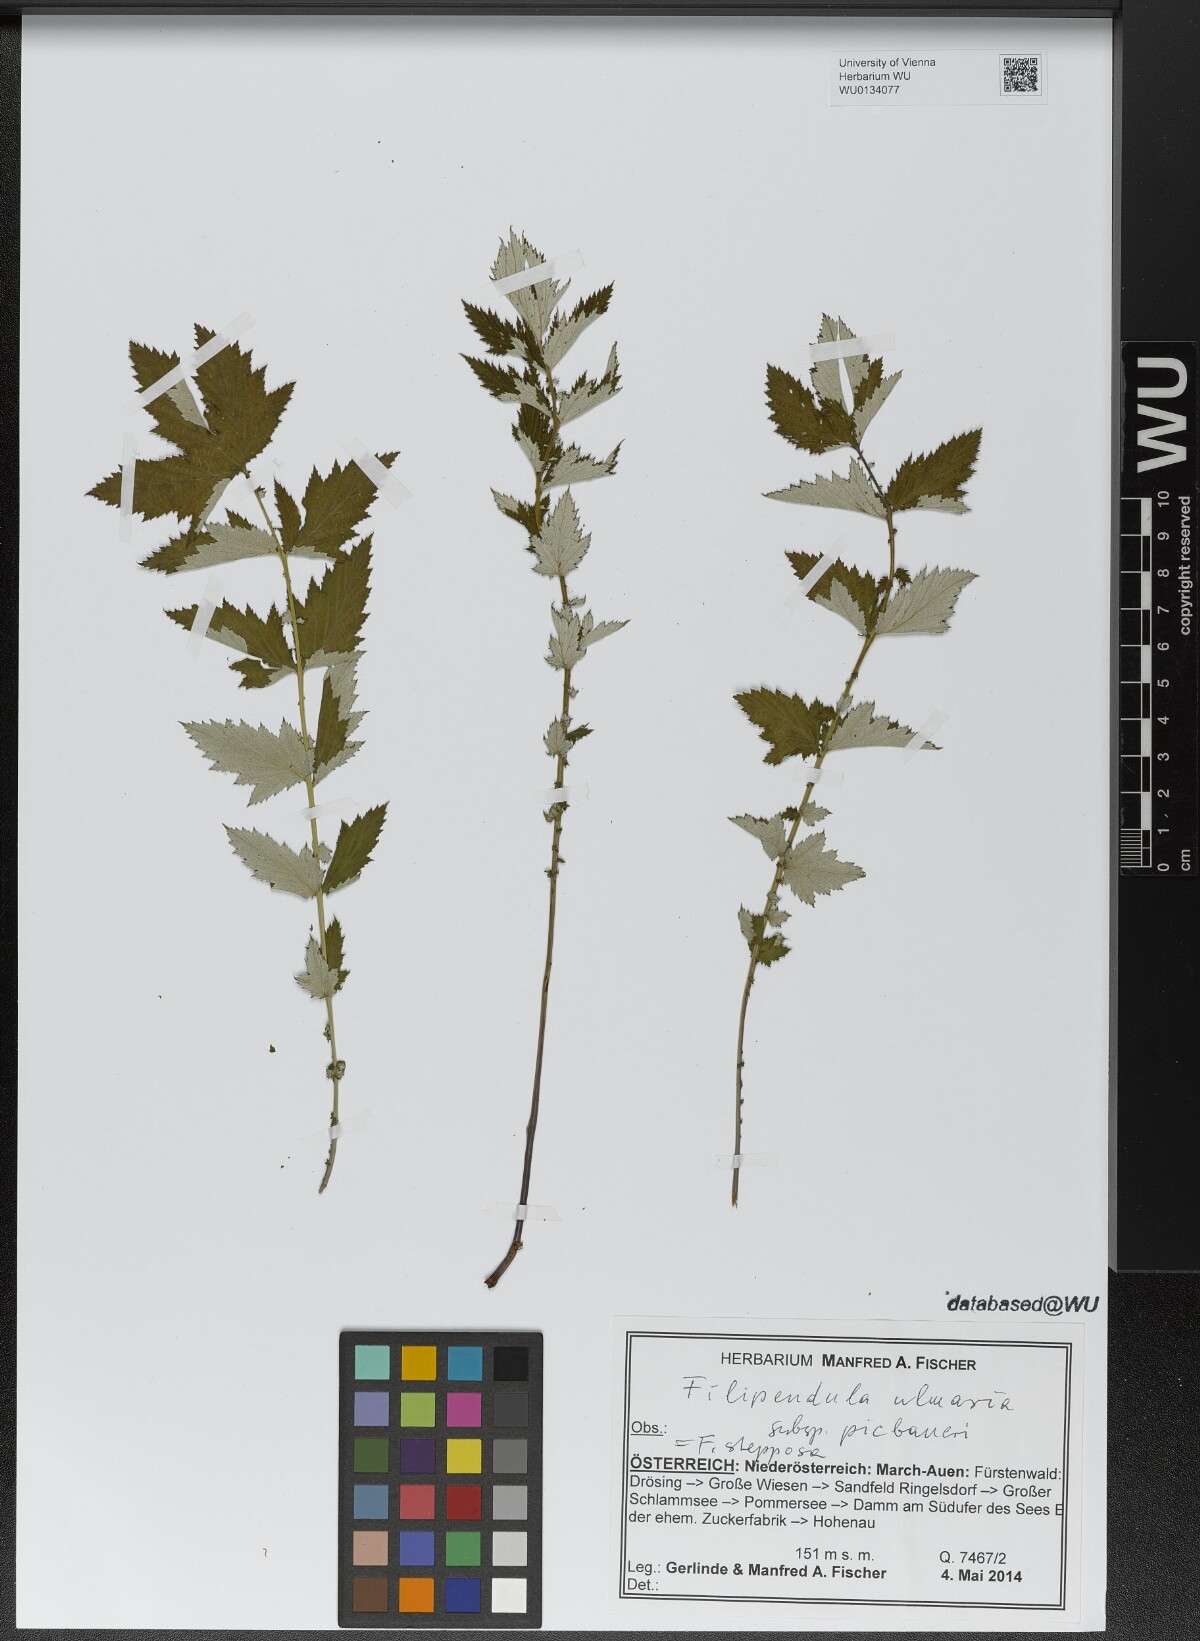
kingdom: Plantae
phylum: Tracheophyta
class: Magnoliopsida
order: Rosales
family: Rosaceae
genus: Filipendula
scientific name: Filipendula ulmaria
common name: Meadowsweet
